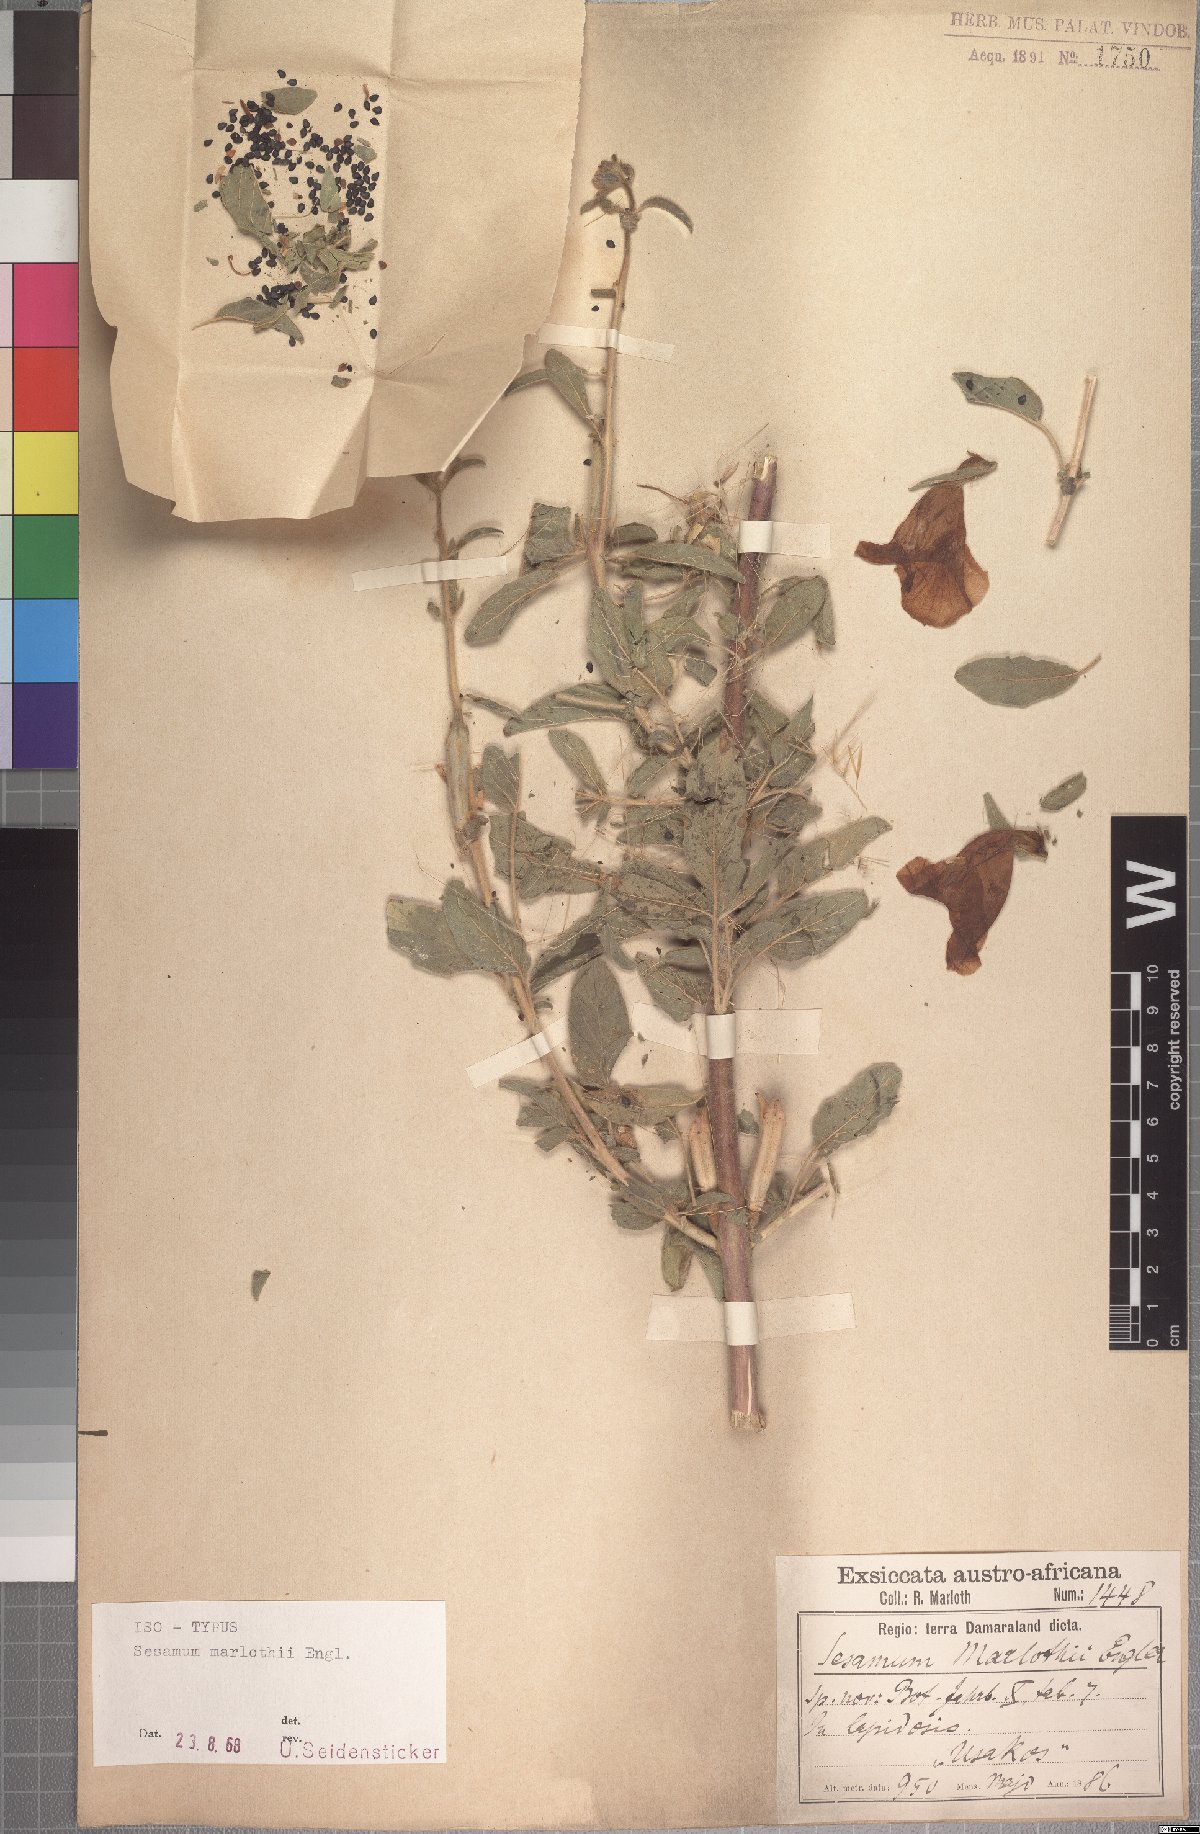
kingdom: Plantae
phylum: Tracheophyta
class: Magnoliopsida
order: Lamiales
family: Pedaliaceae
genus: Sesamum
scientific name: Sesamum marlothii
